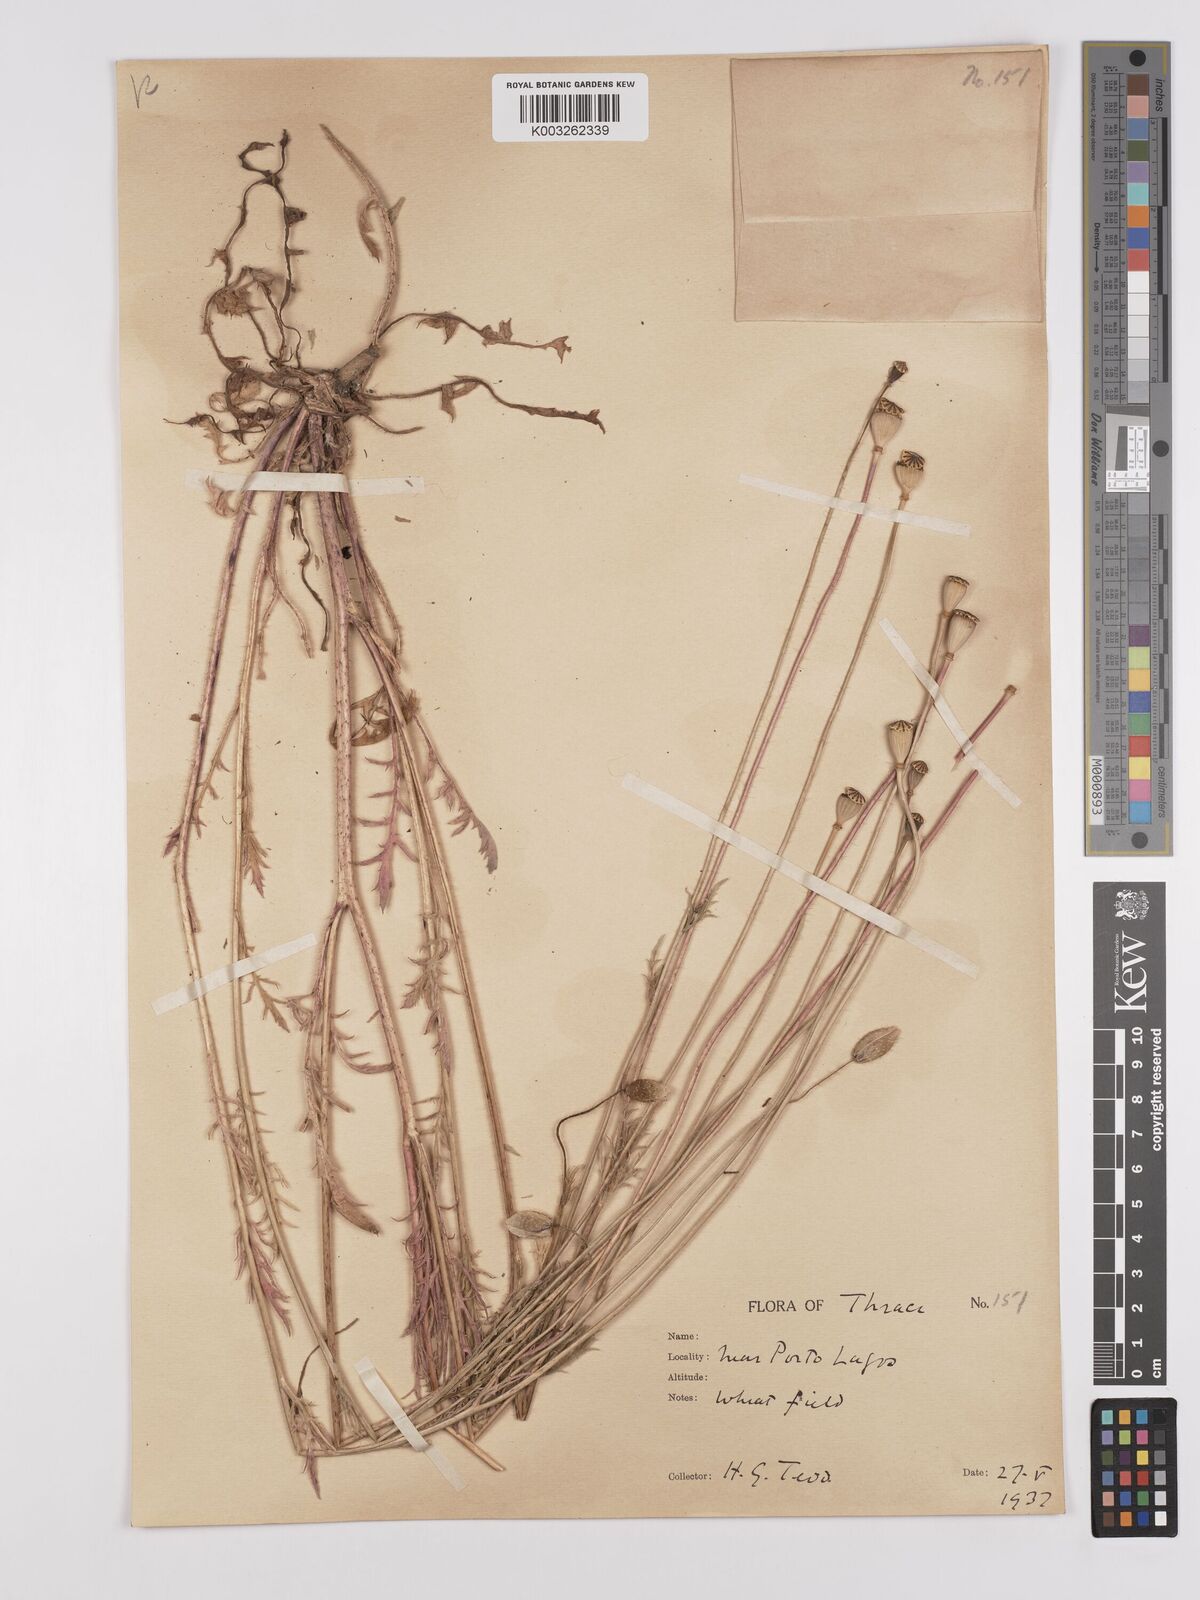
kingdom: Plantae
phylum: Tracheophyta
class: Magnoliopsida
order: Ranunculales
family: Papaveraceae
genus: Papaver
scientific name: Papaver rhoeas
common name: Corn poppy
